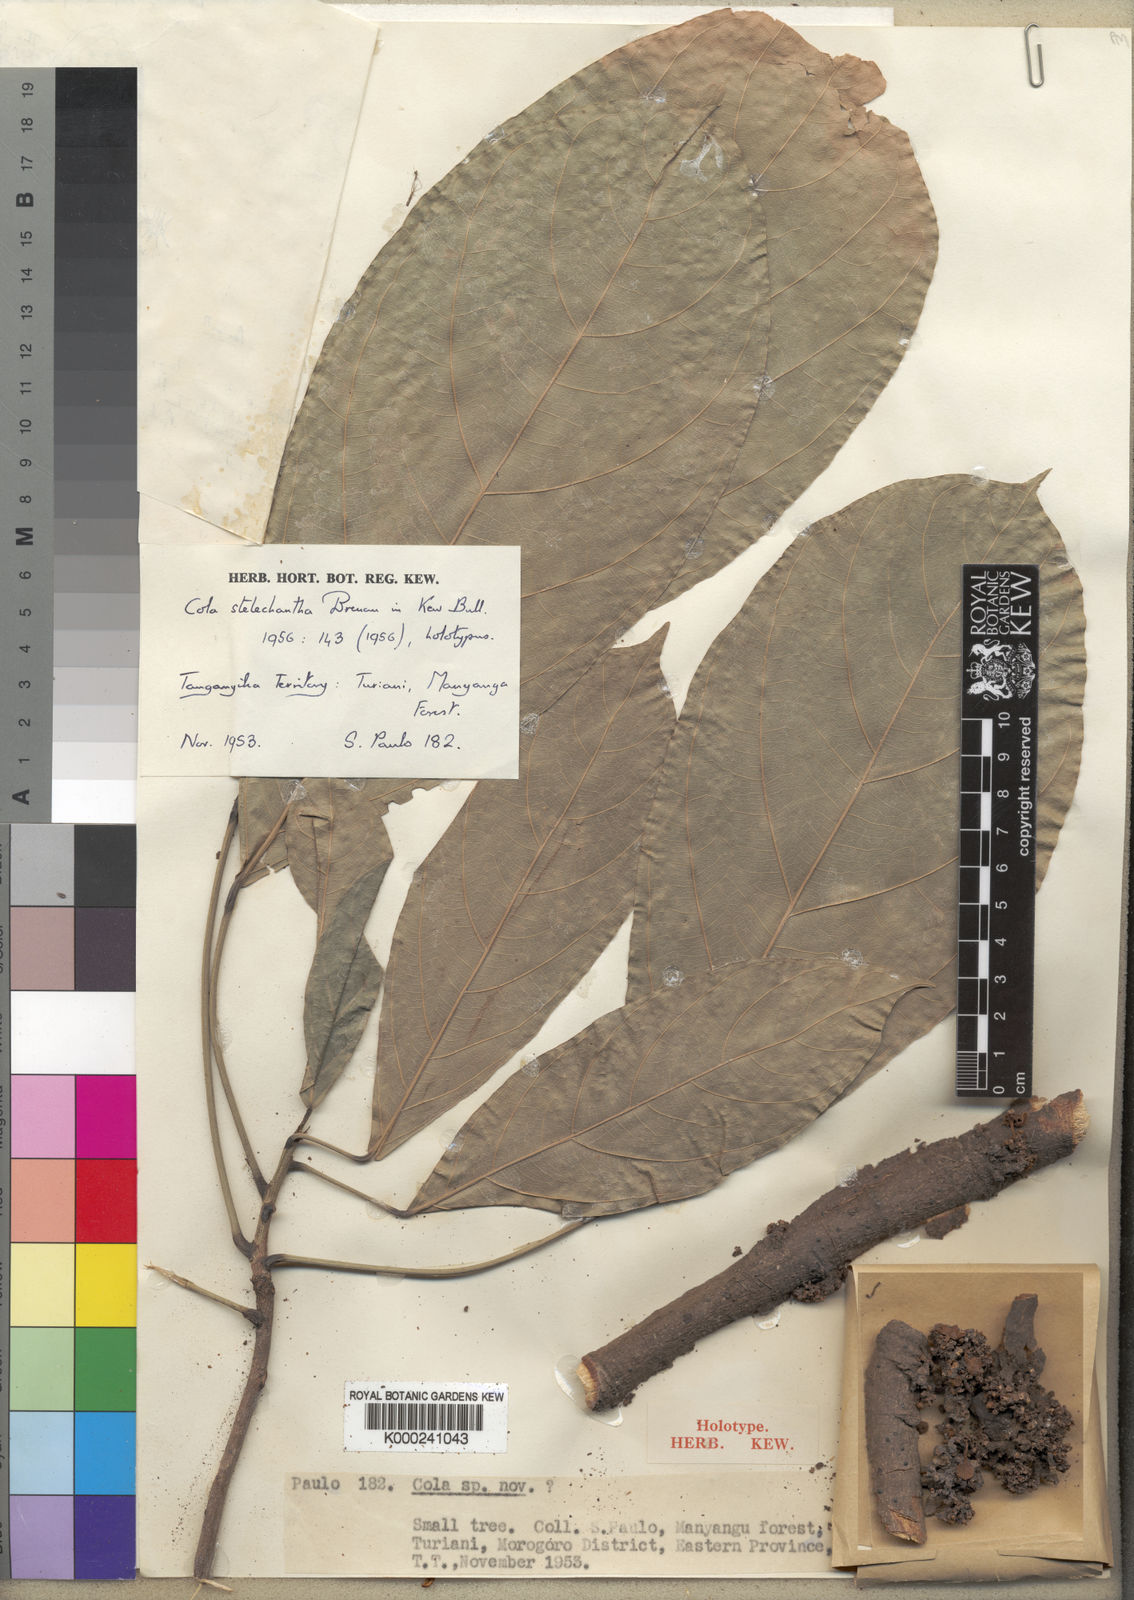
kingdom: Plantae
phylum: Tracheophyta
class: Magnoliopsida
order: Malvales
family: Malvaceae
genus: Cola
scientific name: Cola stelechantha
